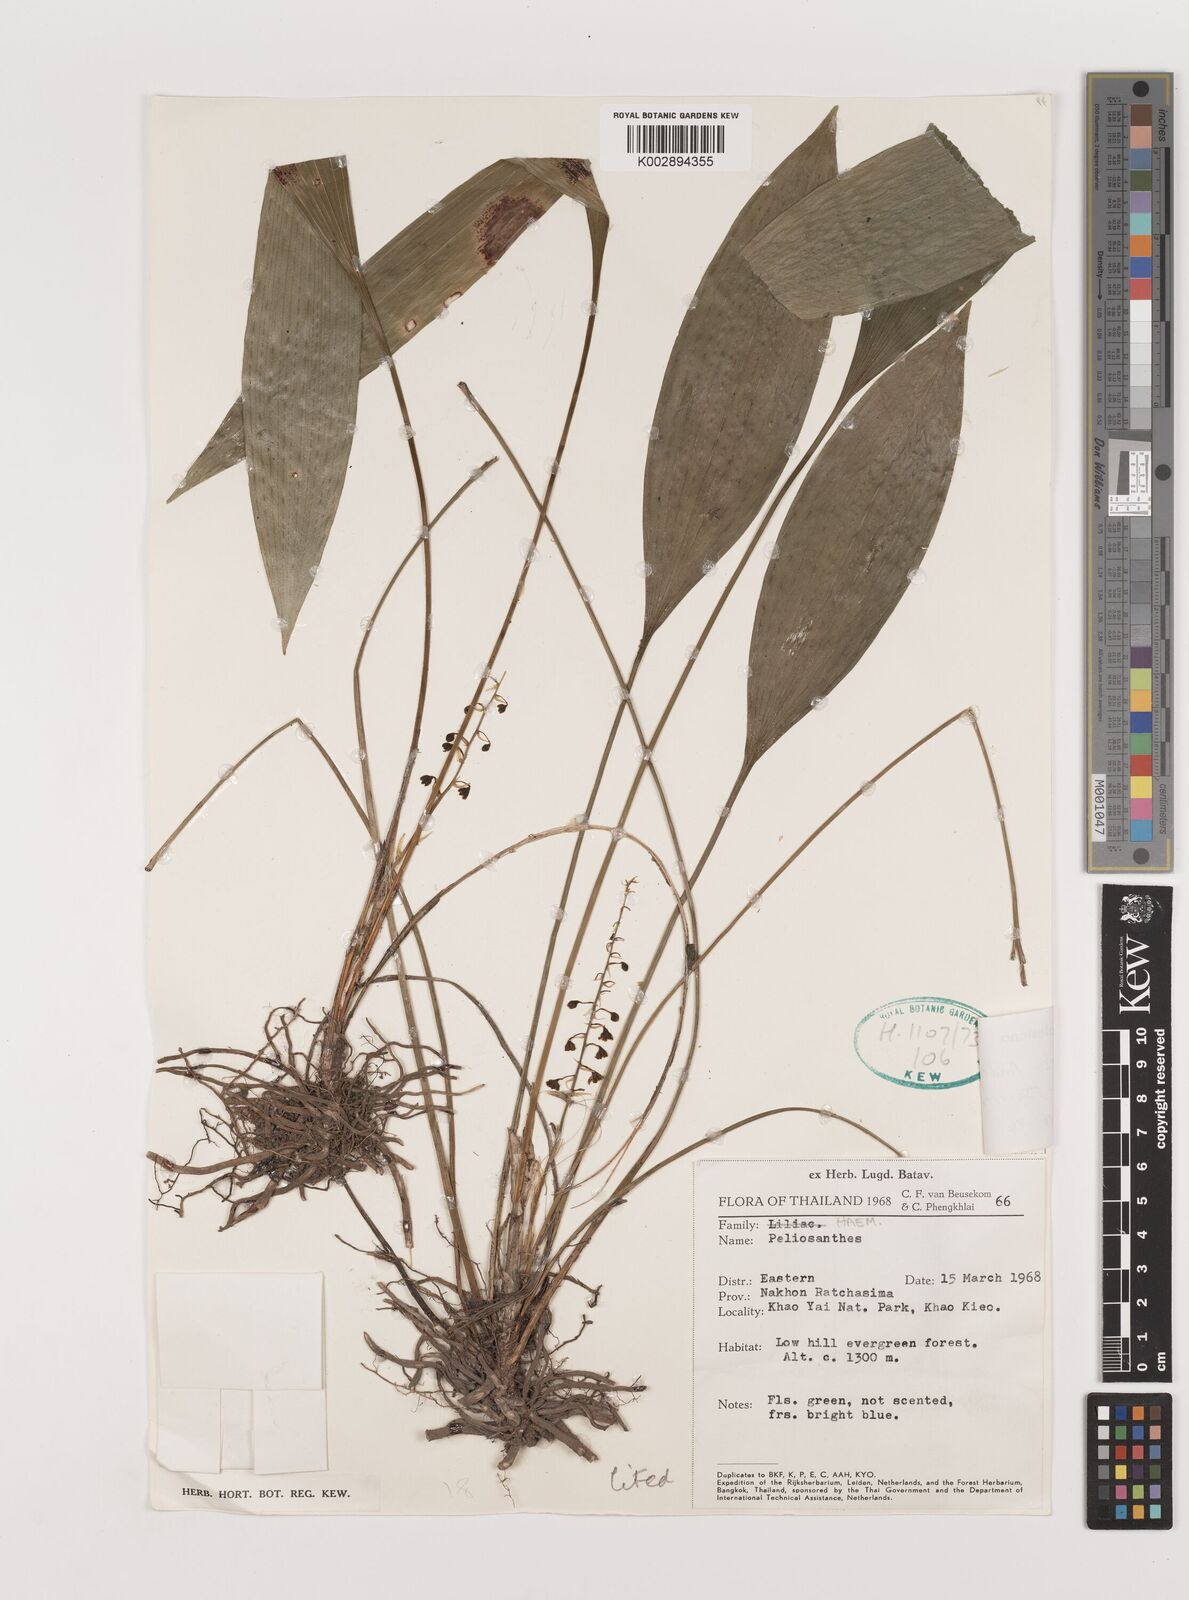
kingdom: Plantae
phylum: Tracheophyta
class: Liliopsida
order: Asparagales
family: Asparagaceae
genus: Peliosanthes
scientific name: Peliosanthes teta
